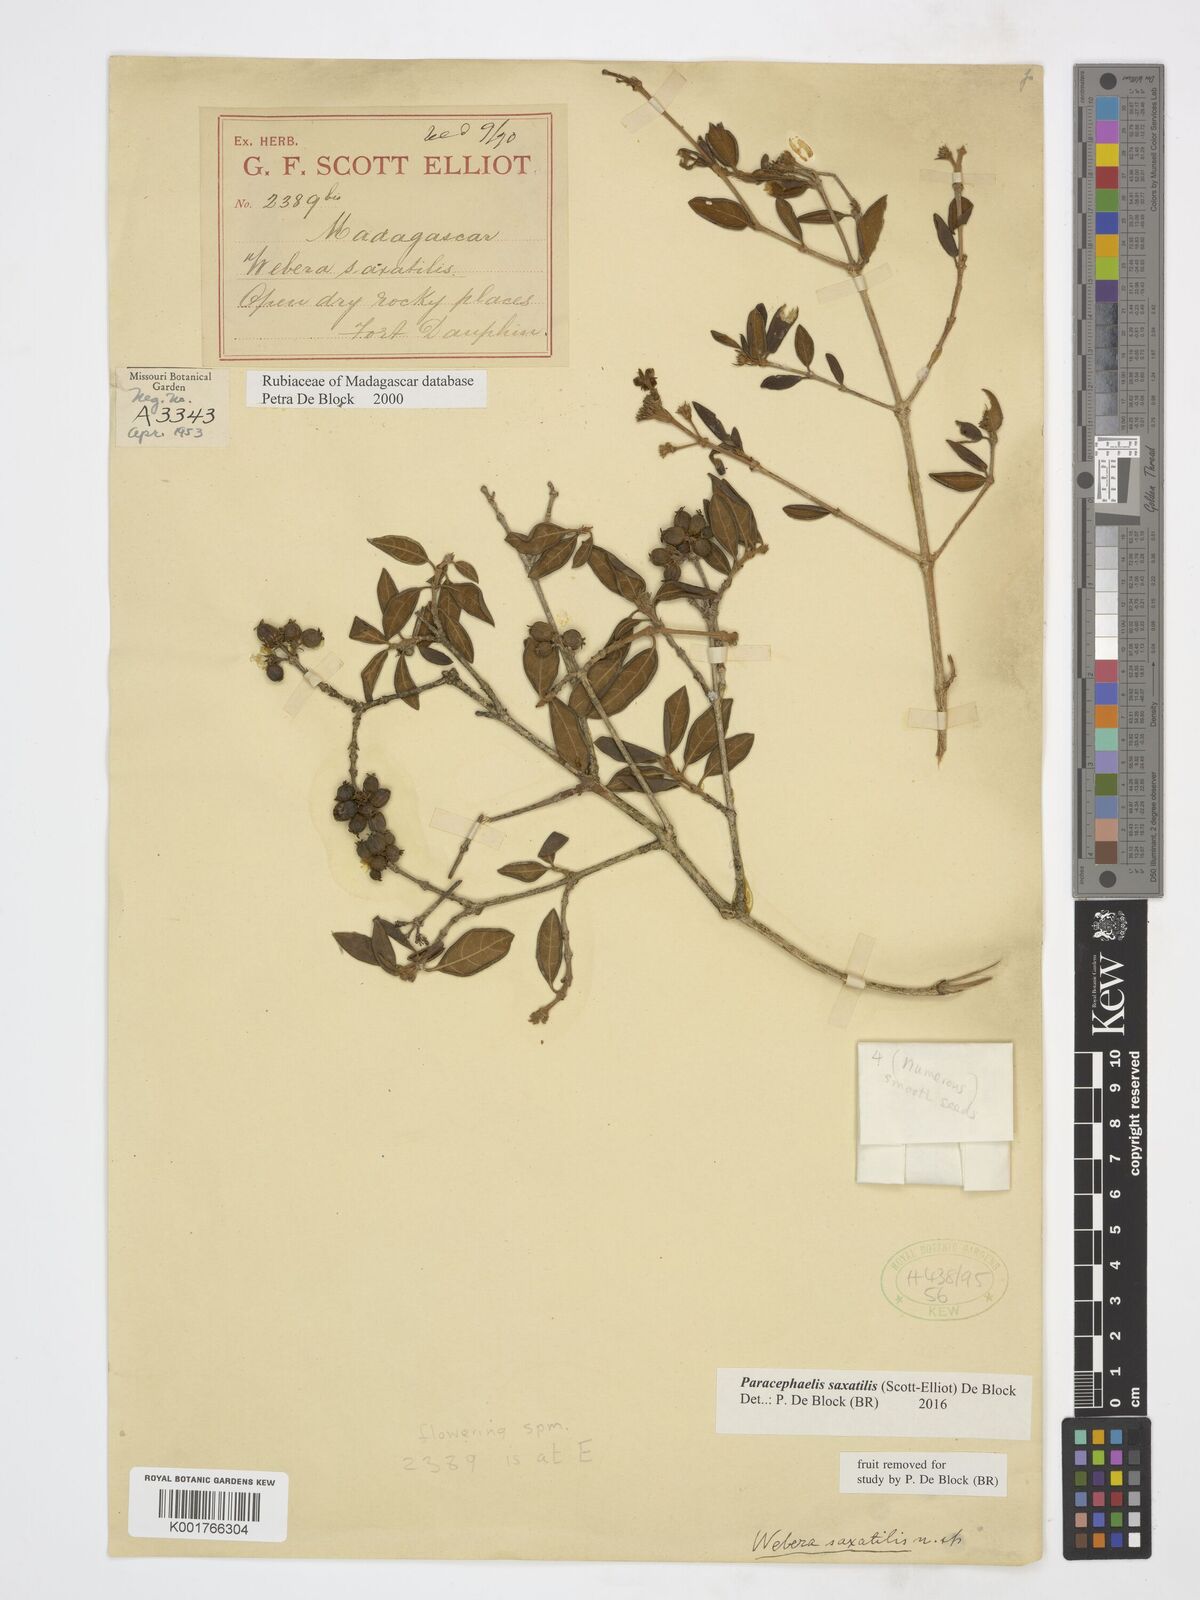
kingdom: Plantae
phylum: Tracheophyta
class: Magnoliopsida
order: Gentianales
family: Rubiaceae
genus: Paracephaelis
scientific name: Paracephaelis saxatilis
